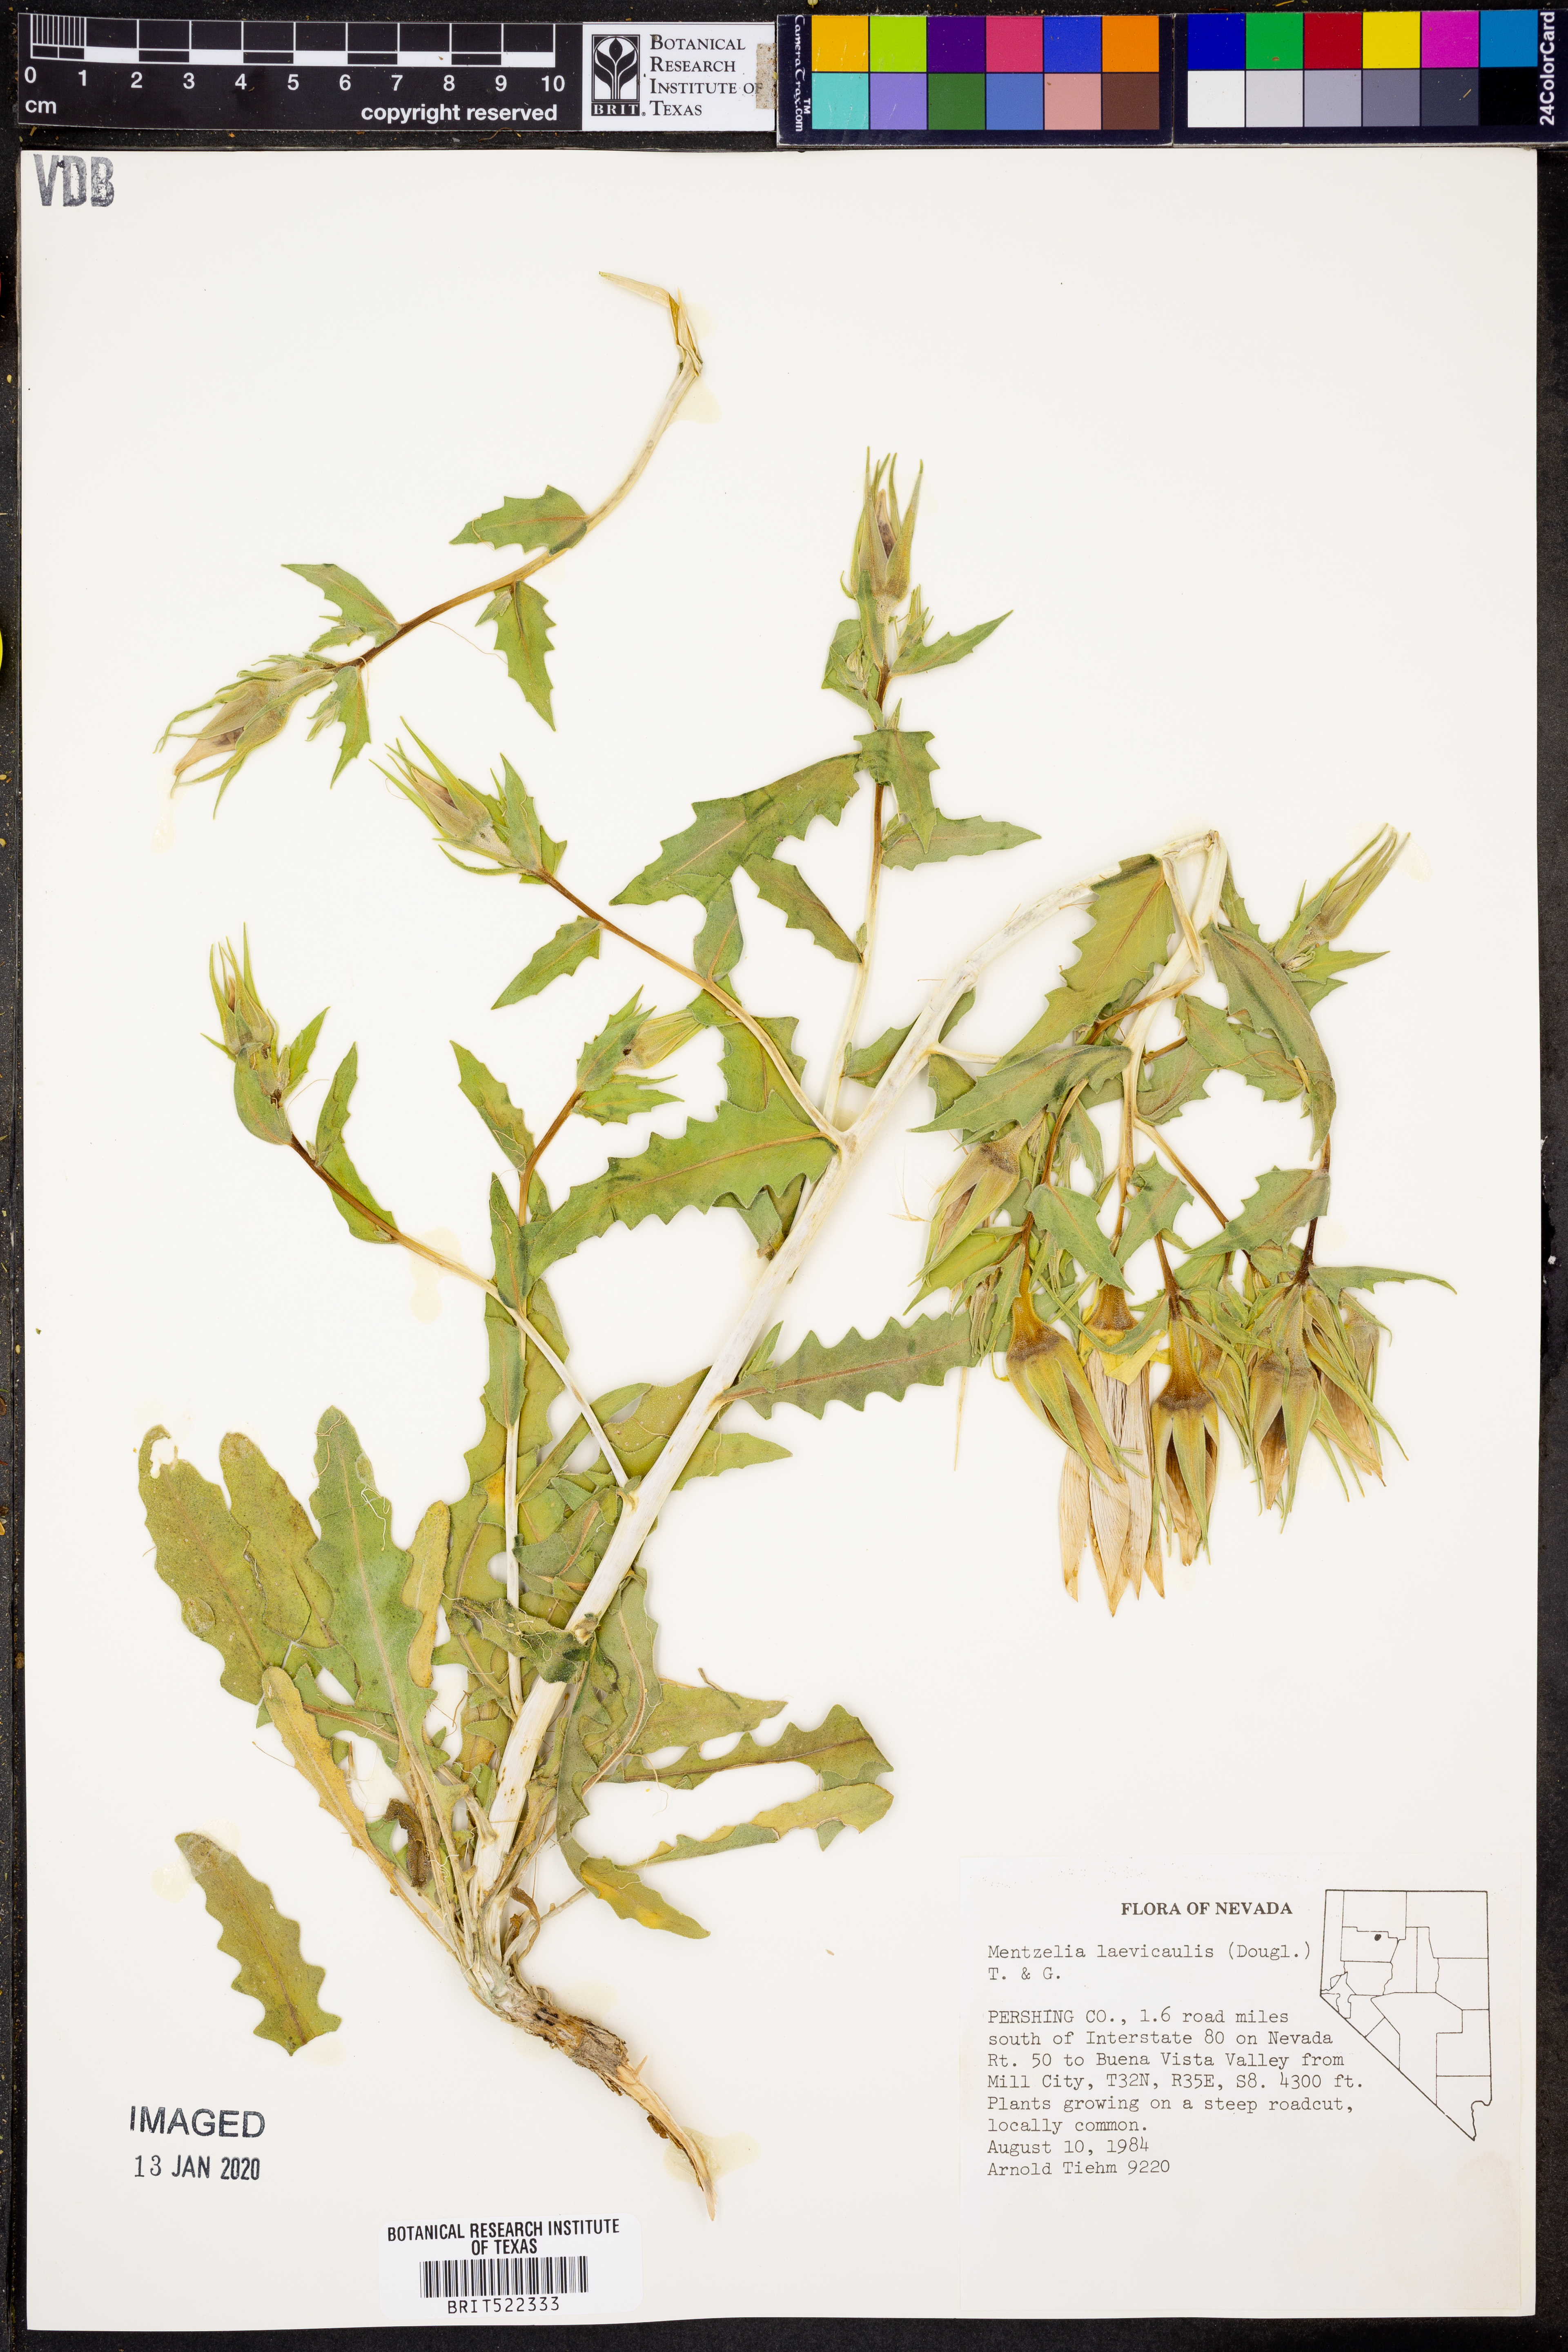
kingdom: Plantae
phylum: Tracheophyta
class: Magnoliopsida
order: Cornales
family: Loasaceae
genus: Mentzelia
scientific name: Mentzelia laevicaulis
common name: Smooth-stem blazingstar
